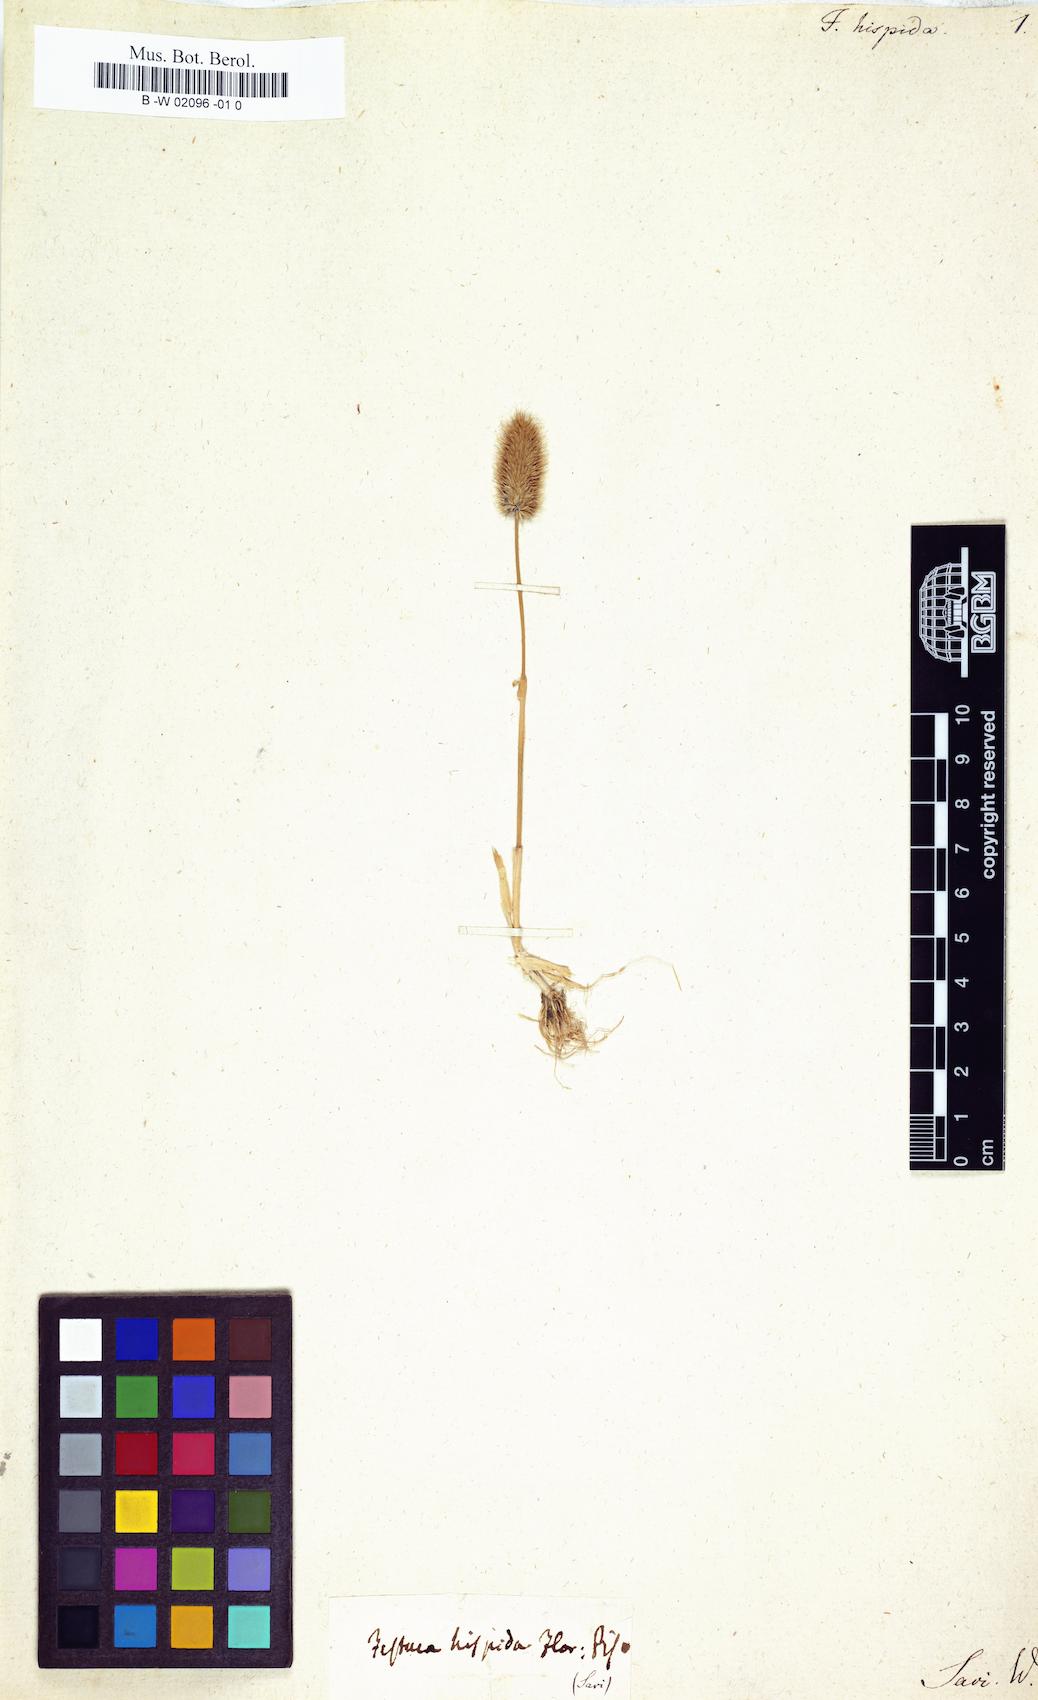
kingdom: Plantae
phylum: Tracheophyta
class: Liliopsida
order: Poales
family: Poaceae
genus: Rostraria
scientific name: Rostraria hispida
